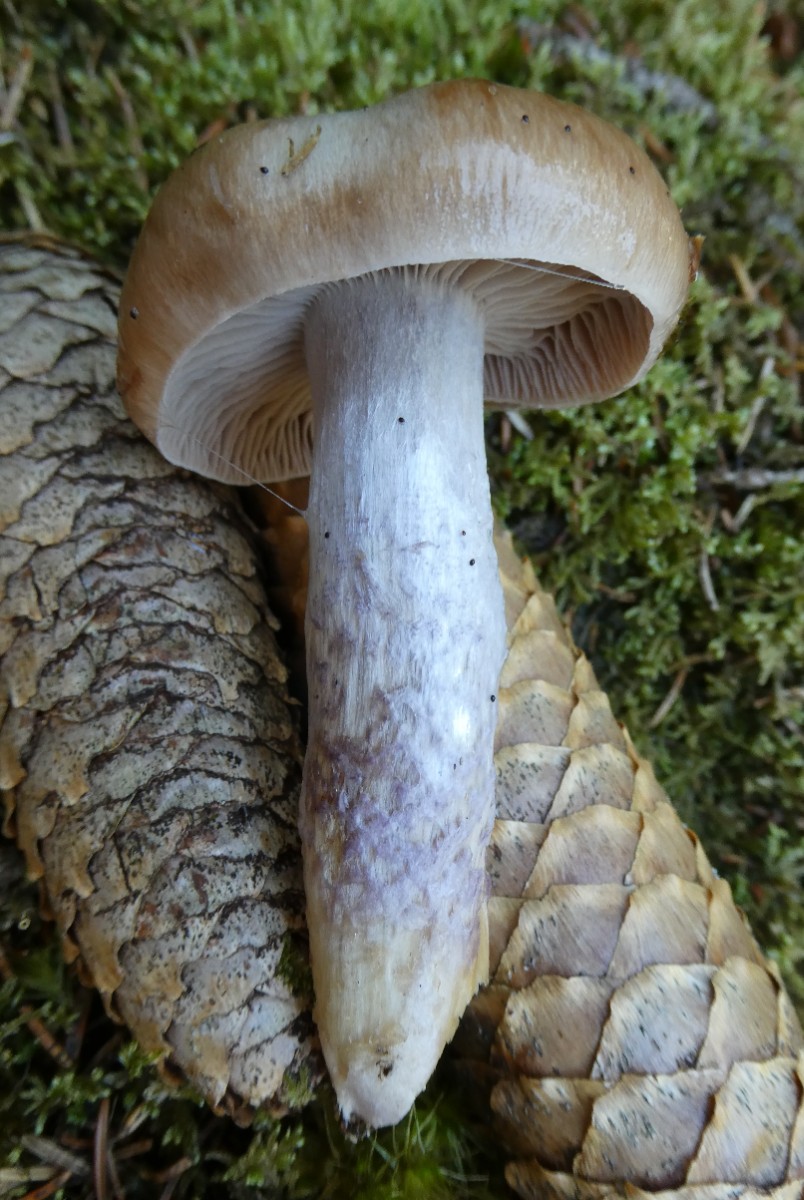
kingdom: Fungi
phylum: Basidiomycota
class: Agaricomycetes
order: Agaricales
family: Cortinariaceae
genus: Cortinarius
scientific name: Cortinarius
